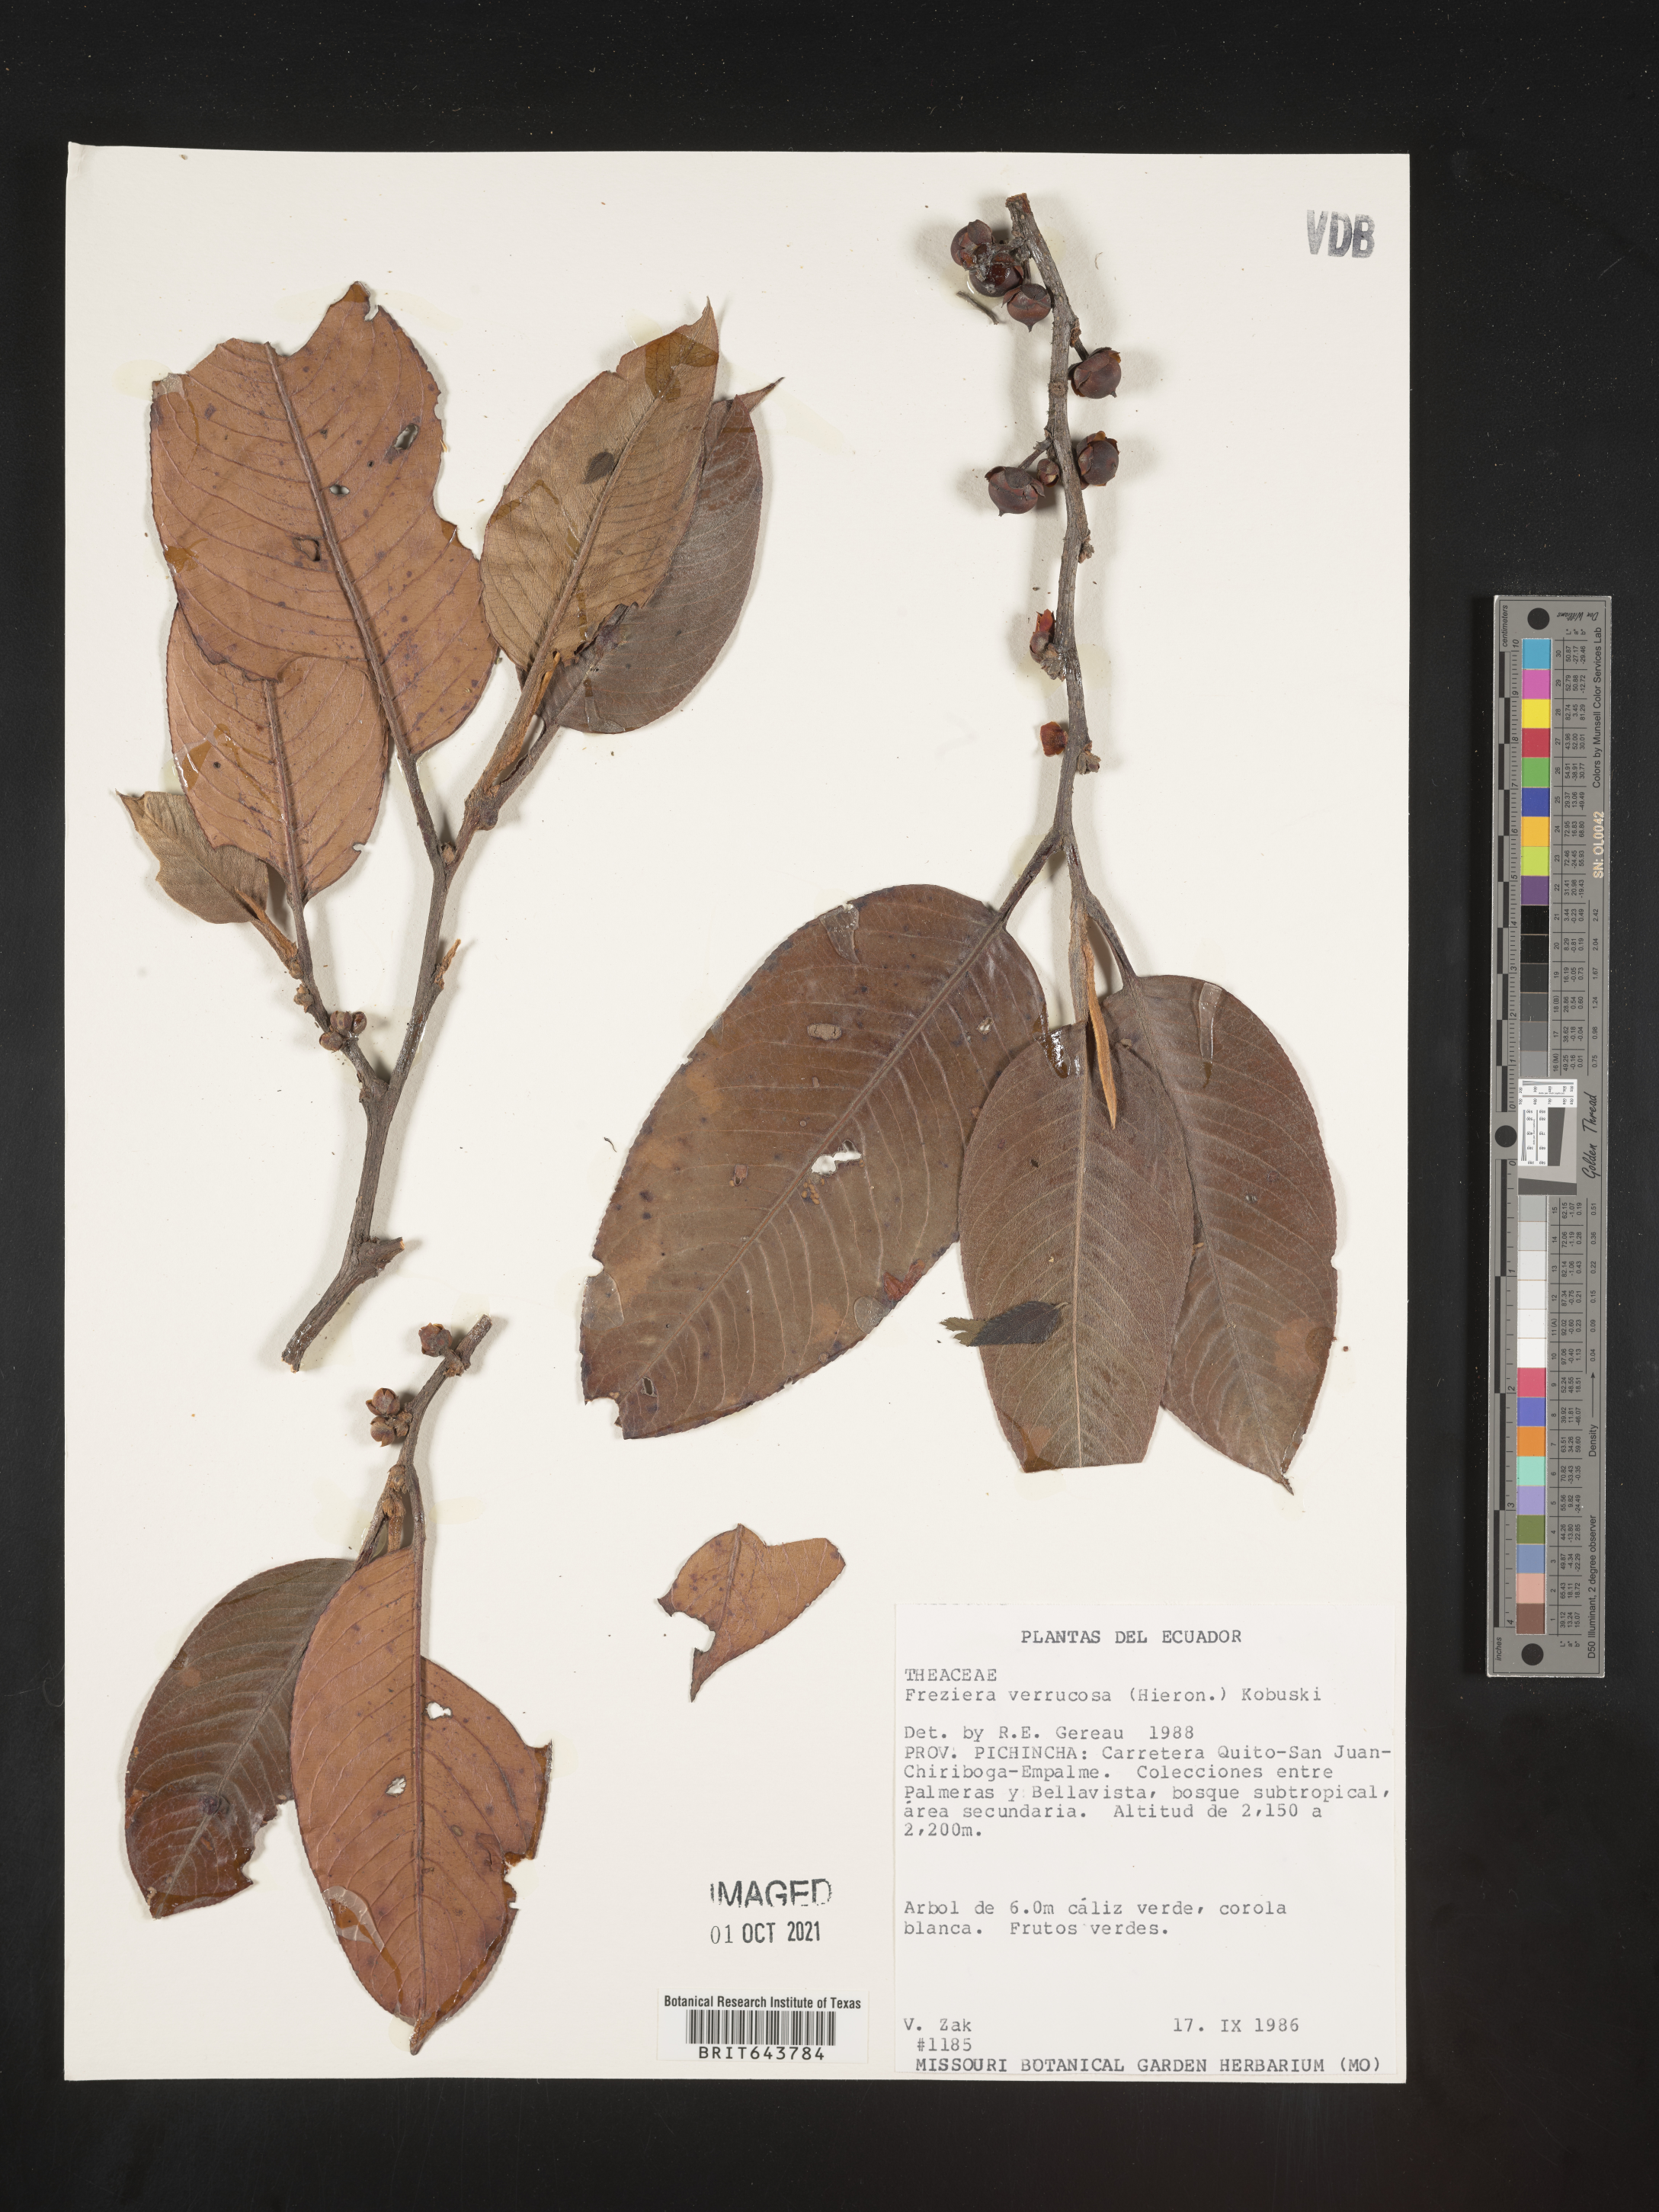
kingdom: Plantae
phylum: Tracheophyta
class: Magnoliopsida
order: Ericales
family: Pentaphylacaceae
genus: Freziera
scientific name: Freziera
